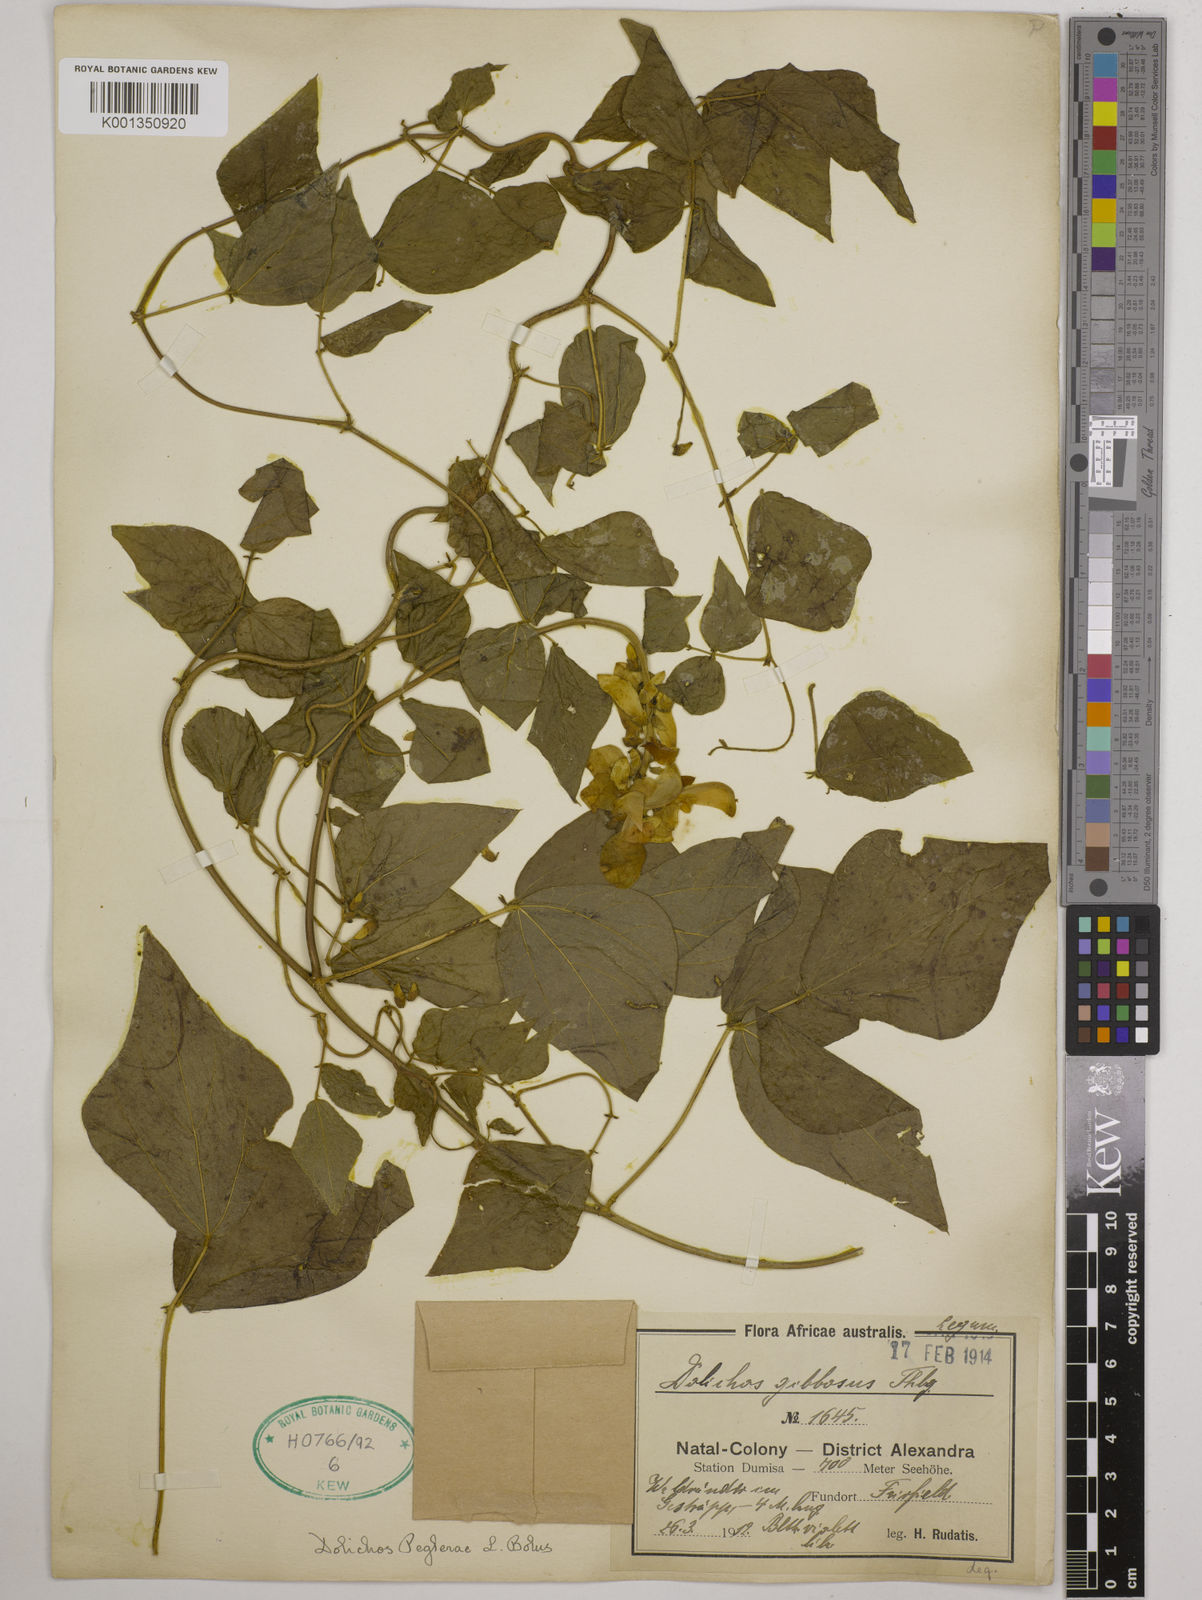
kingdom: Plantae
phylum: Tracheophyta
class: Magnoliopsida
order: Fabales
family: Fabaceae
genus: Dolichos
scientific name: Dolichos peglerae
